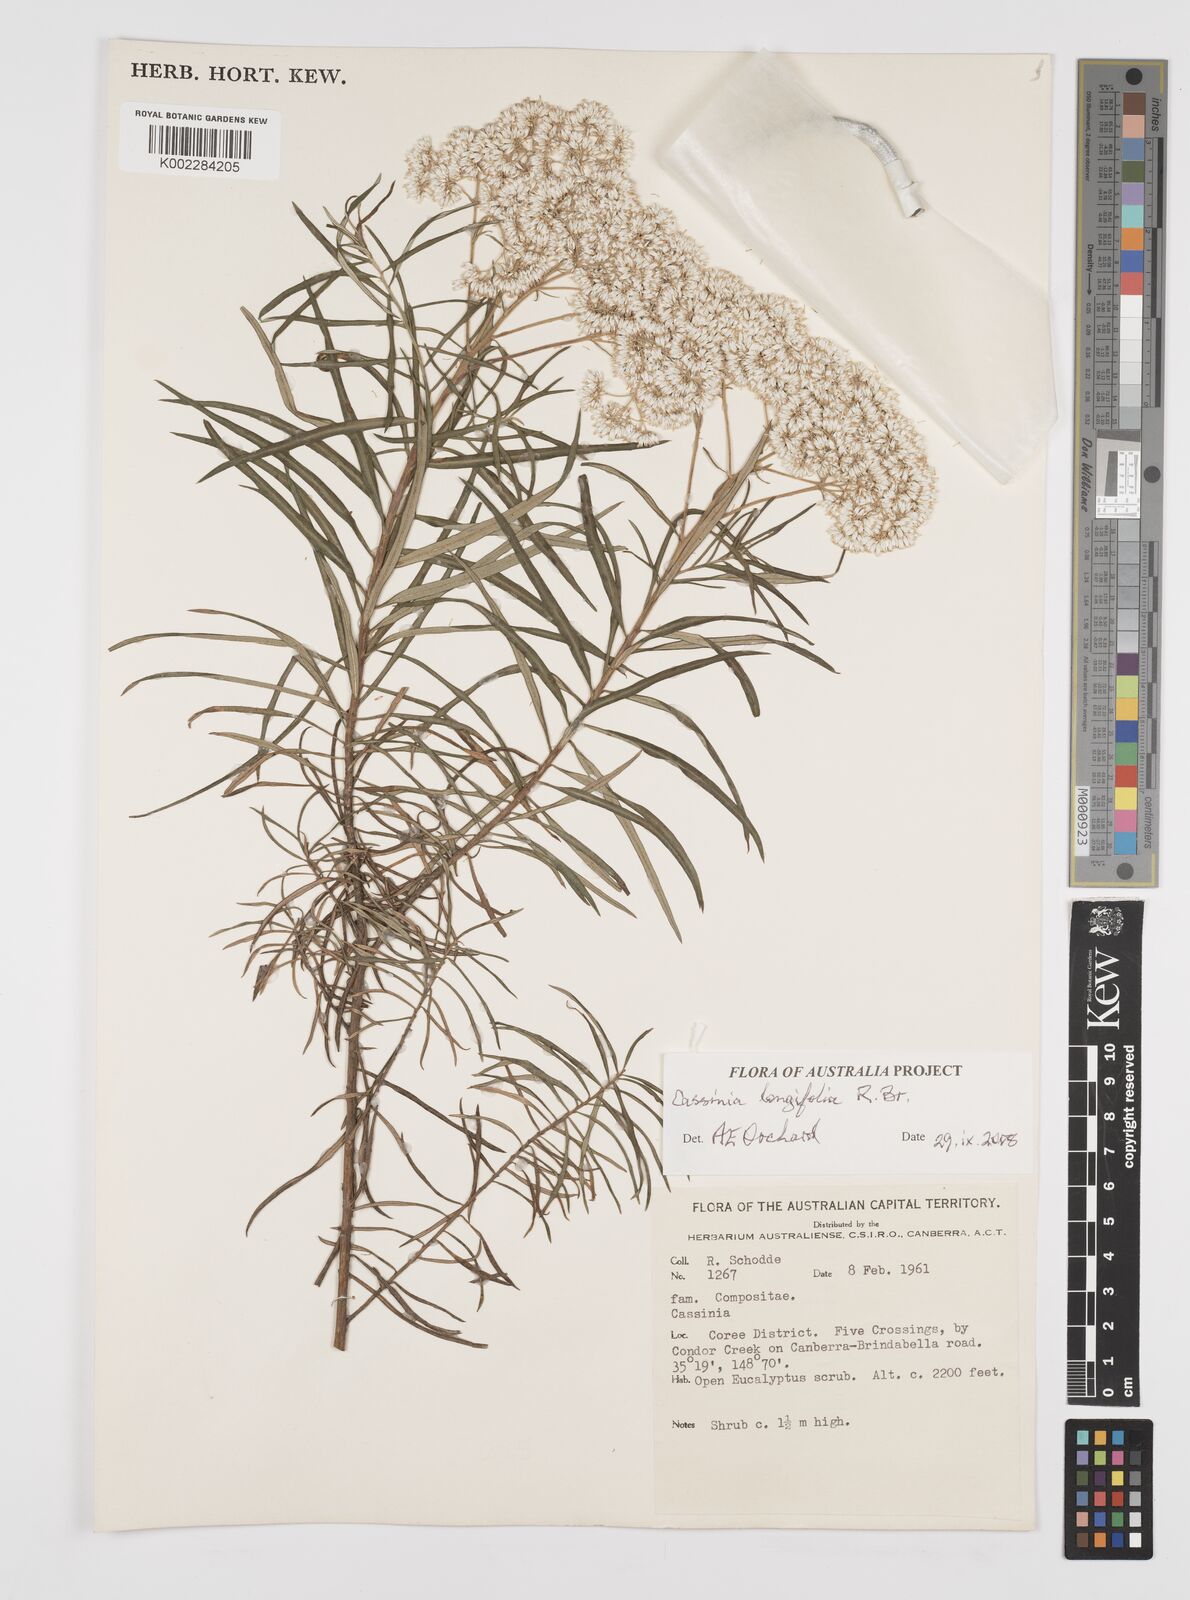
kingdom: Plantae
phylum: Tracheophyta
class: Magnoliopsida
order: Asterales
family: Asteraceae
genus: Cassinia
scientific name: Cassinia longifolia
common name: Longleaf-dogwood
